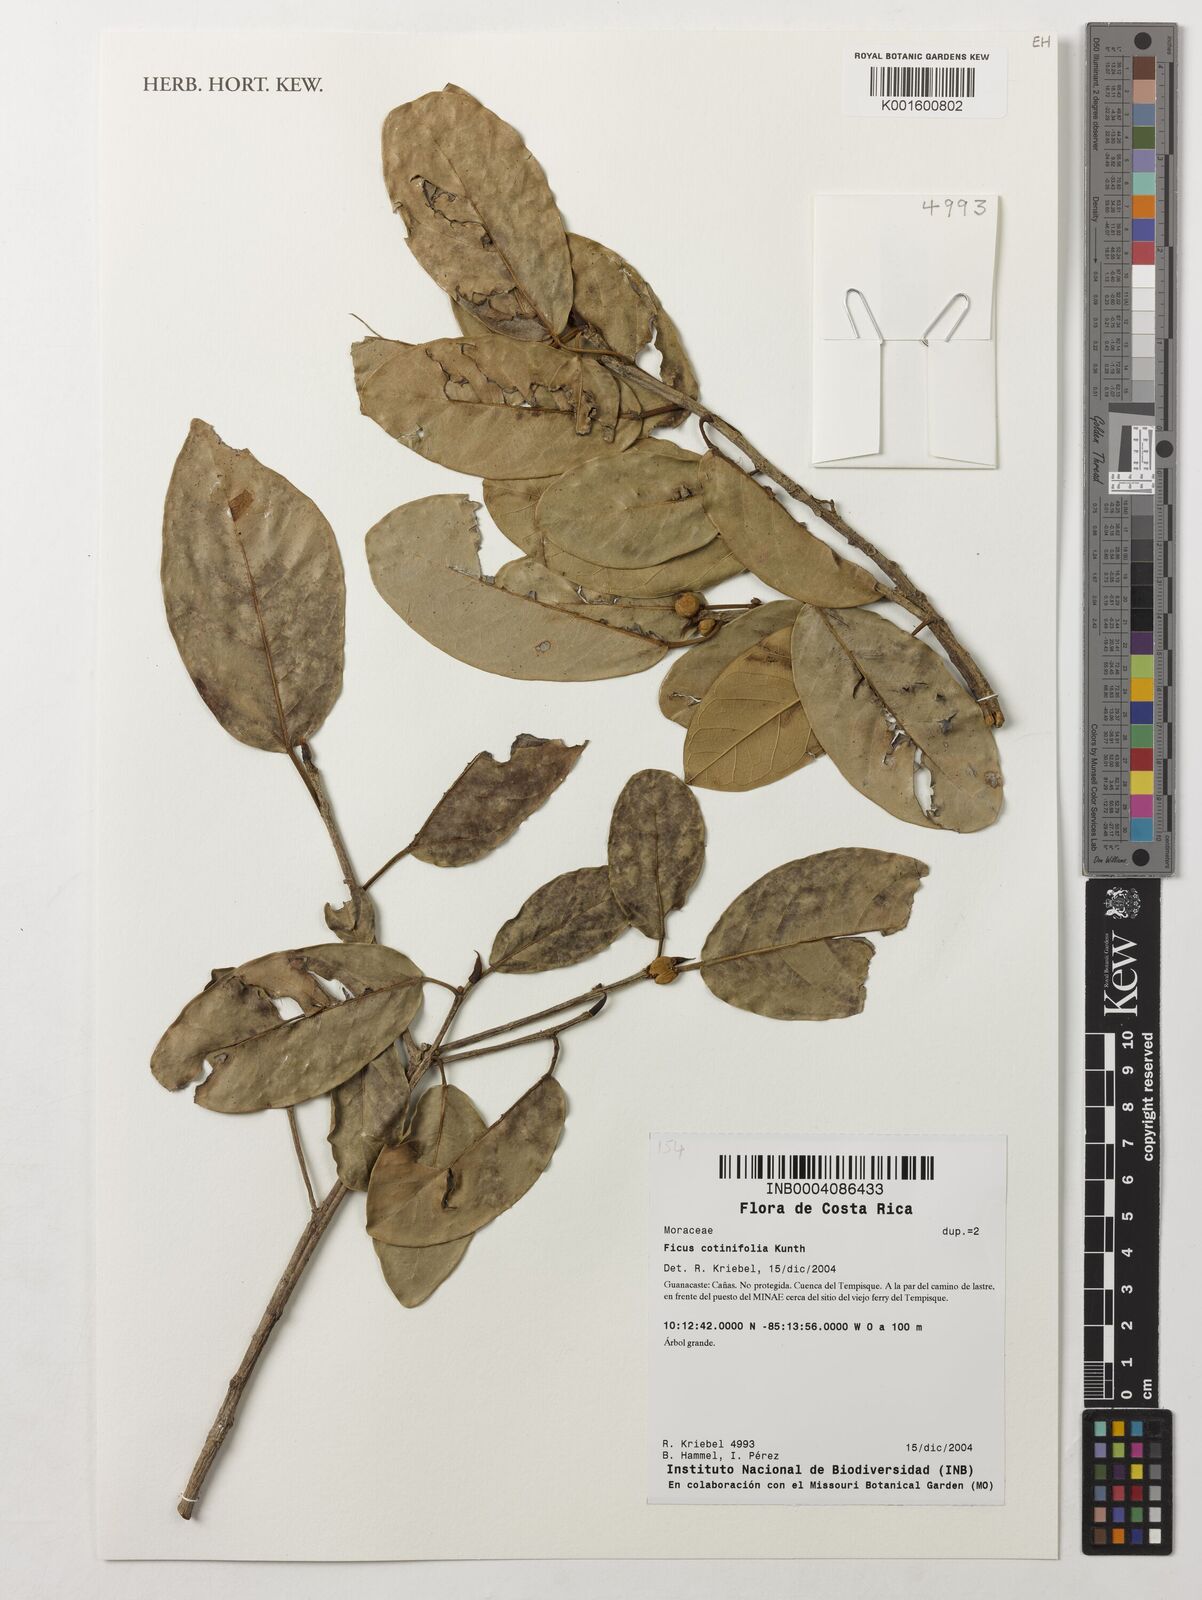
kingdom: Plantae
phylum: Tracheophyta
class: Magnoliopsida
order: Rosales
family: Moraceae
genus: Ficus
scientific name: Ficus cotinifolia
